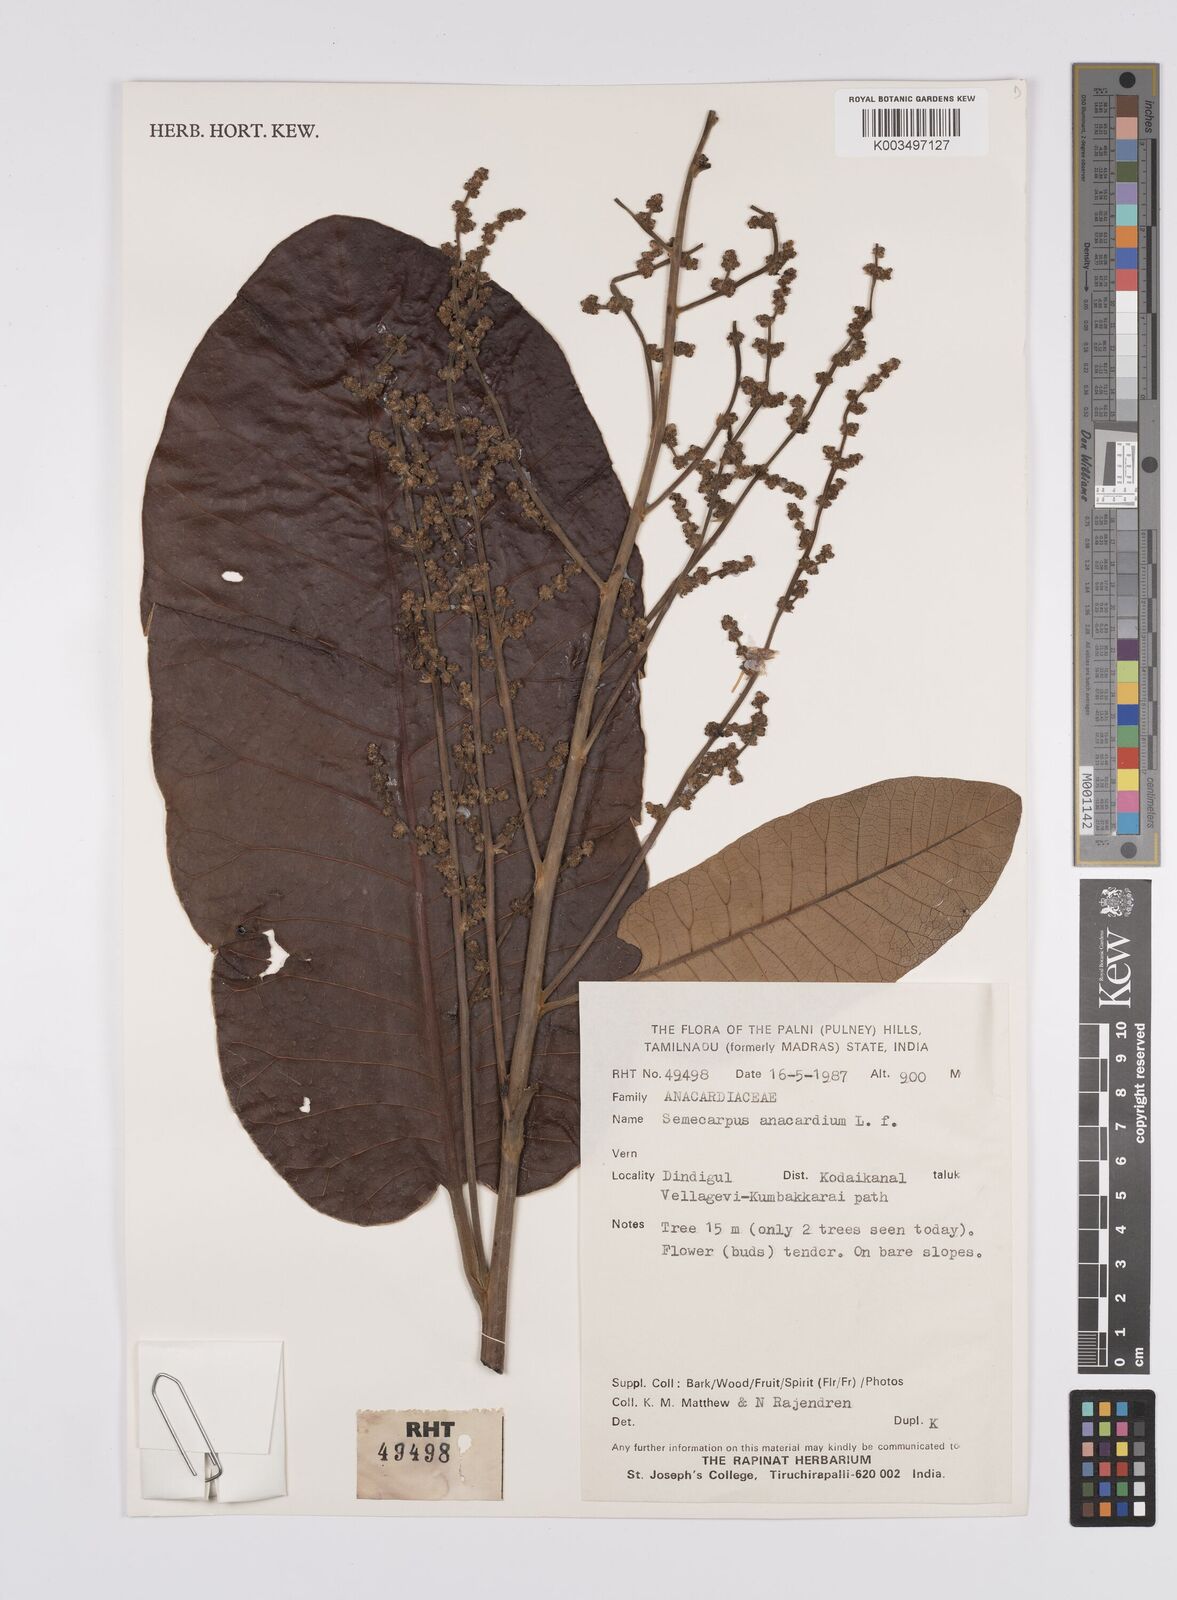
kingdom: Plantae
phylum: Tracheophyta
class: Magnoliopsida
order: Sapindales
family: Anacardiaceae
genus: Semecarpus
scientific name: Semecarpus anacardium
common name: Marking nut-tree
